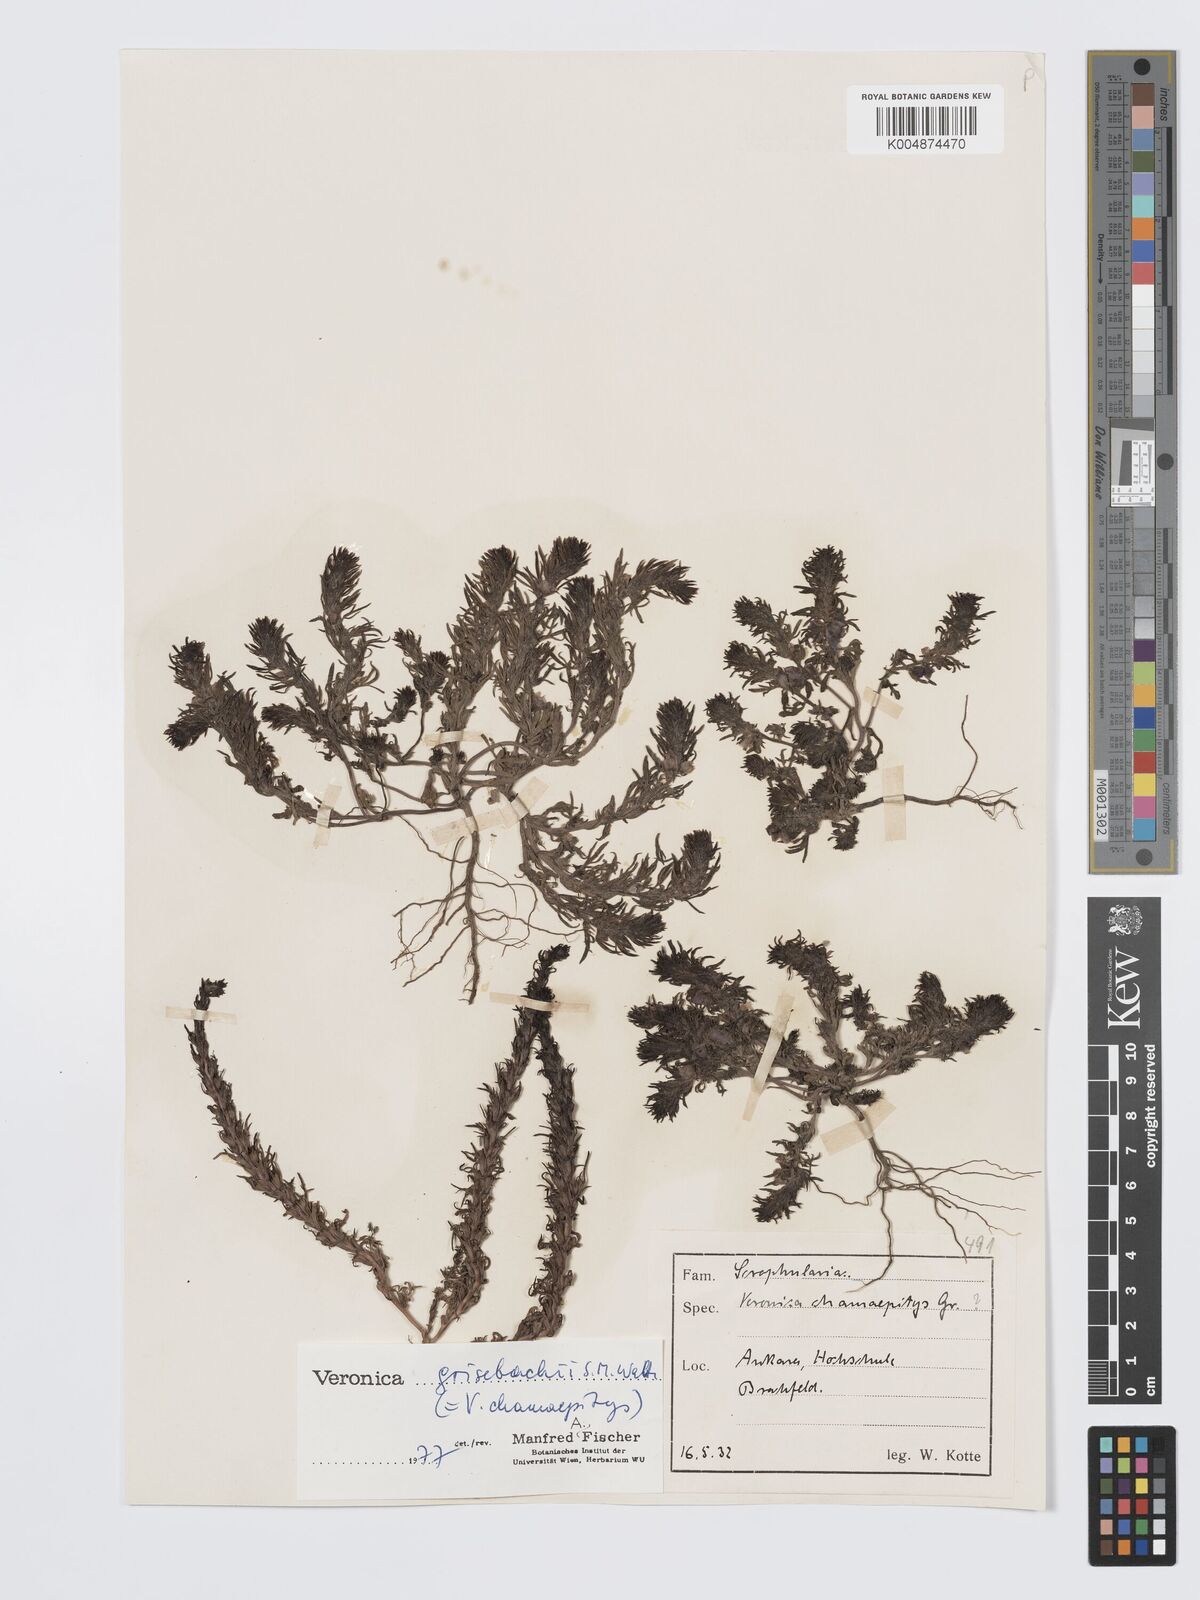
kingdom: Plantae
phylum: Tracheophyta
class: Magnoliopsida
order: Lamiales
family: Plantaginaceae
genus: Veronica
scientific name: Veronica grisebachii
